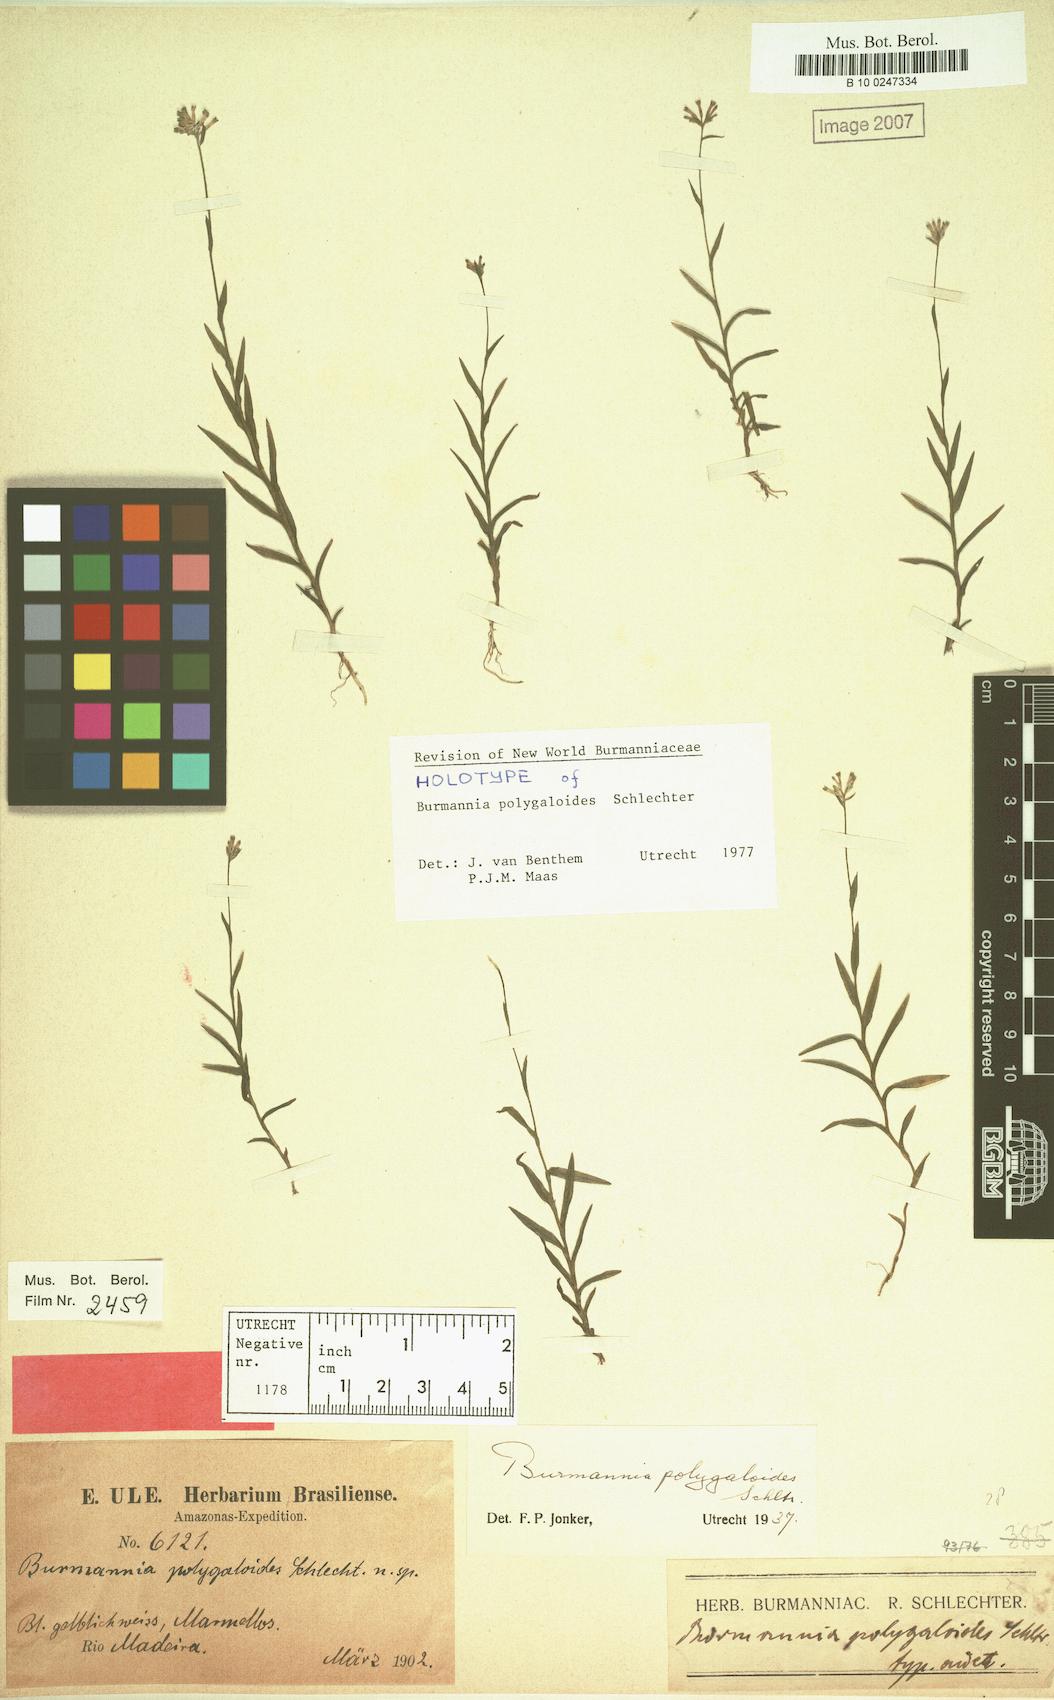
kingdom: Plantae
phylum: Tracheophyta
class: Liliopsida
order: Dioscoreales
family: Burmanniaceae
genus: Burmannia
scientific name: Burmannia polygaloides
